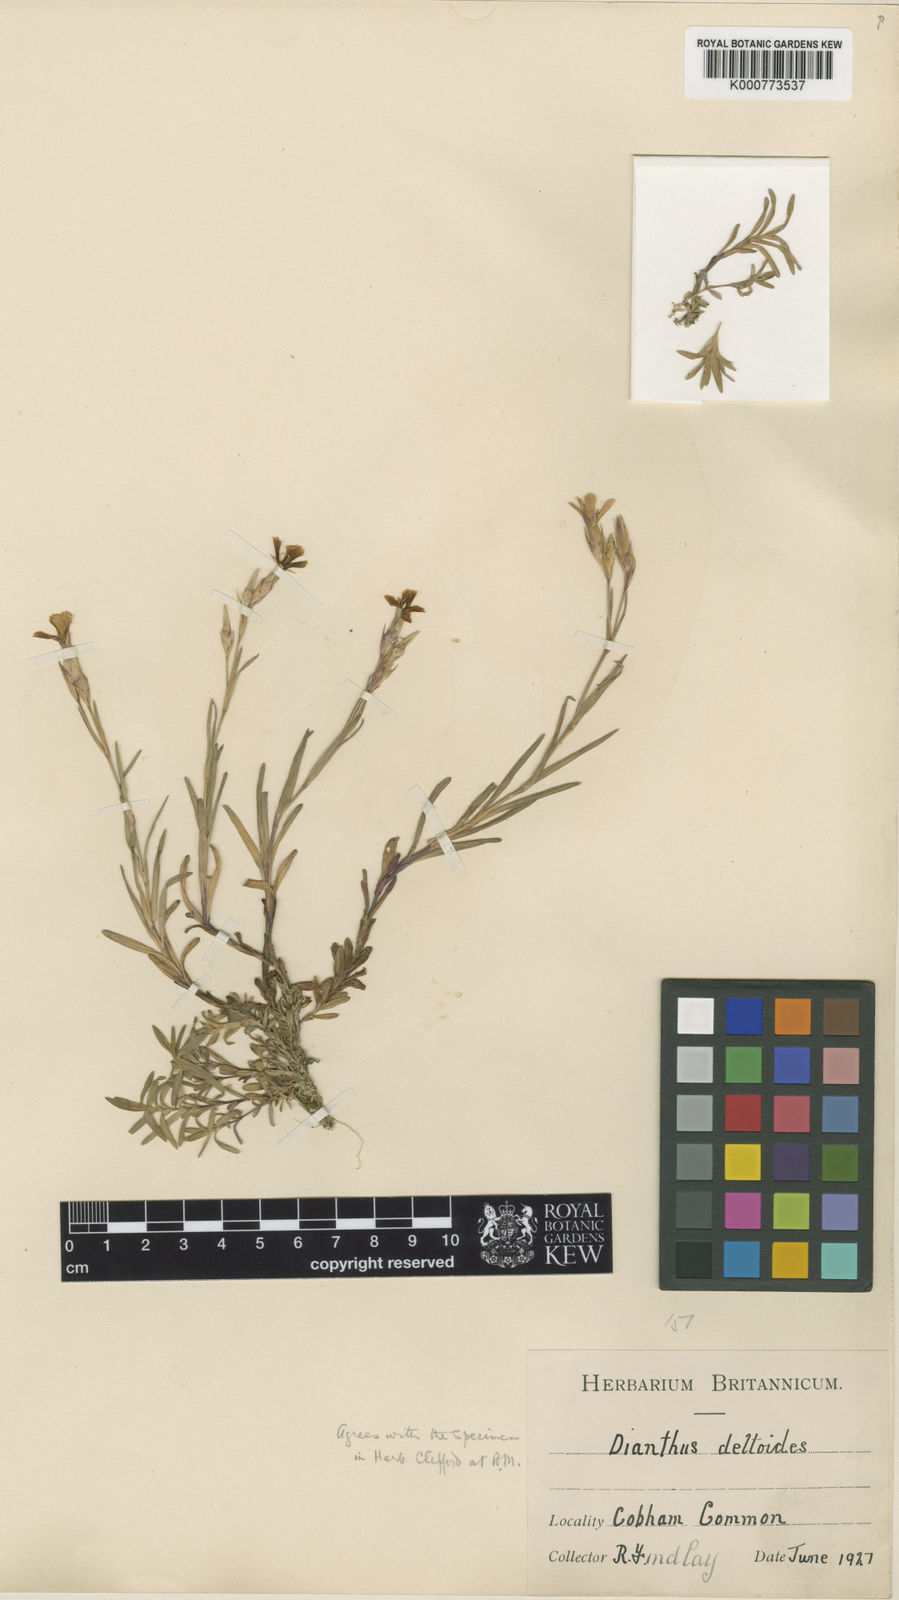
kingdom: Plantae
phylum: Tracheophyta
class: Magnoliopsida
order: Caryophyllales
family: Caryophyllaceae
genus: Dianthus
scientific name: Dianthus deltoides
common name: Maiden pink
